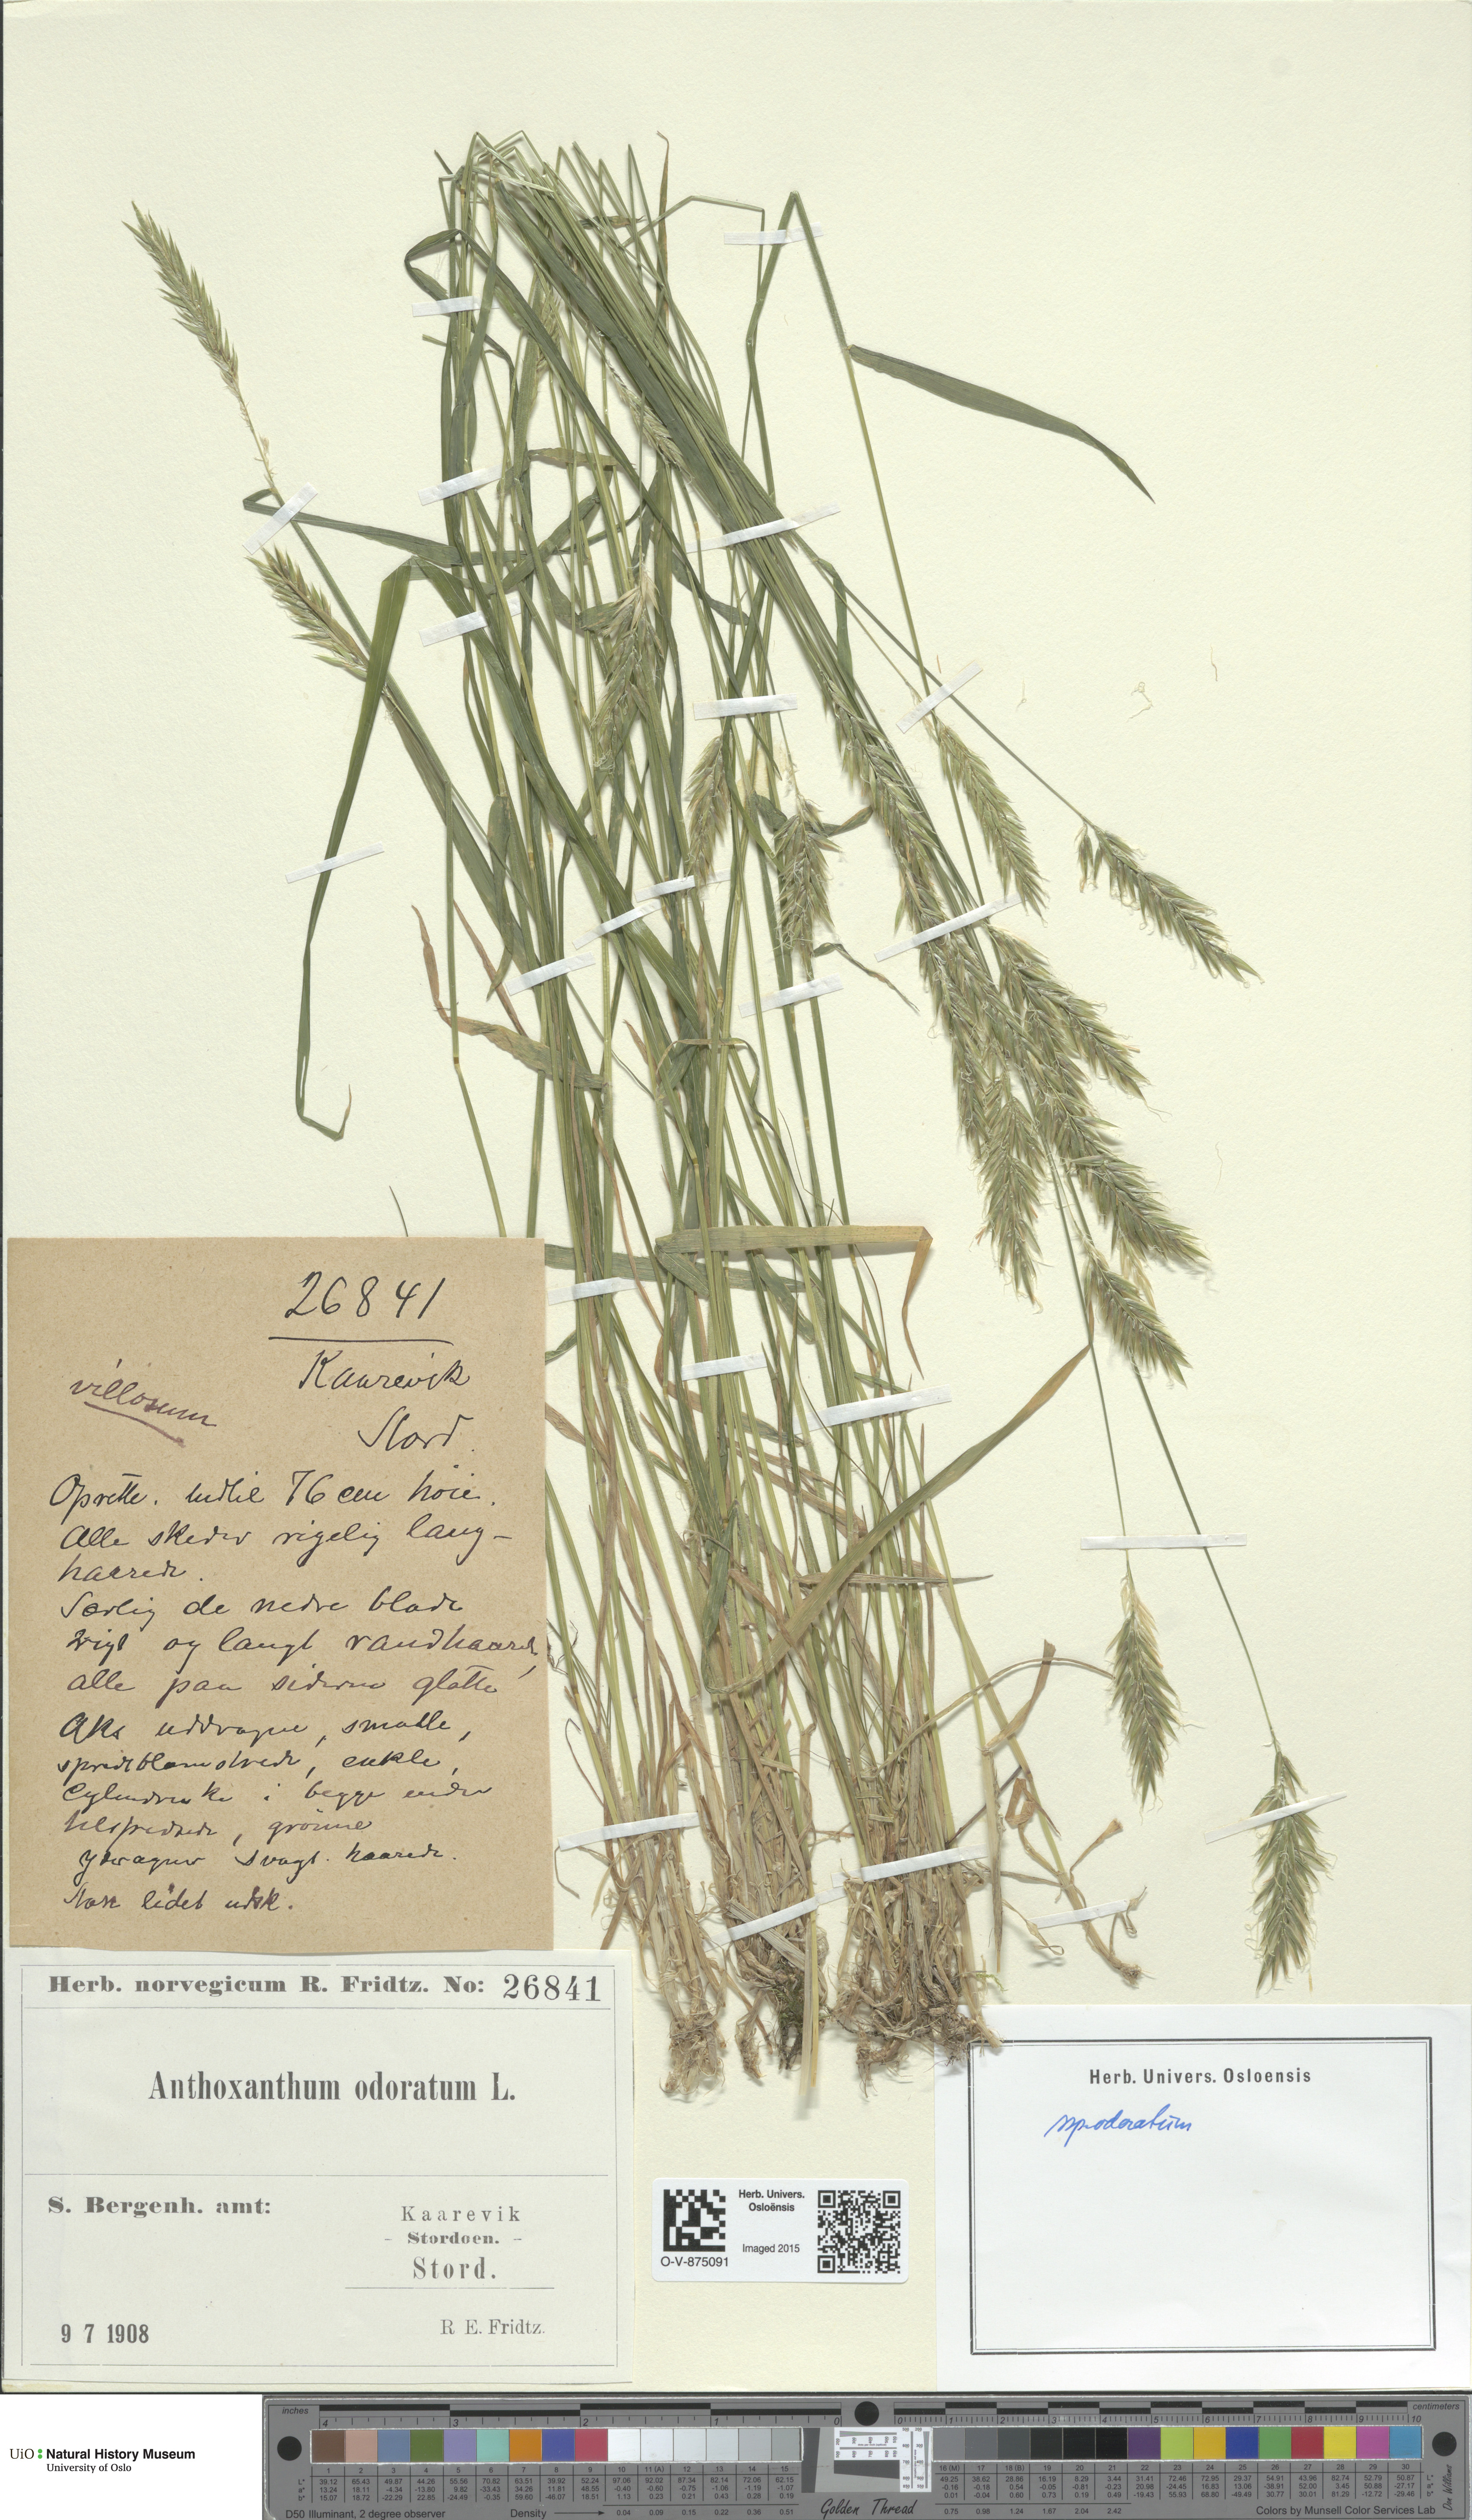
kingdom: Plantae
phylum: Tracheophyta
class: Liliopsida
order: Poales
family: Poaceae
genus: Anthoxanthum
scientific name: Anthoxanthum odoratum
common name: Sweet vernalgrass
